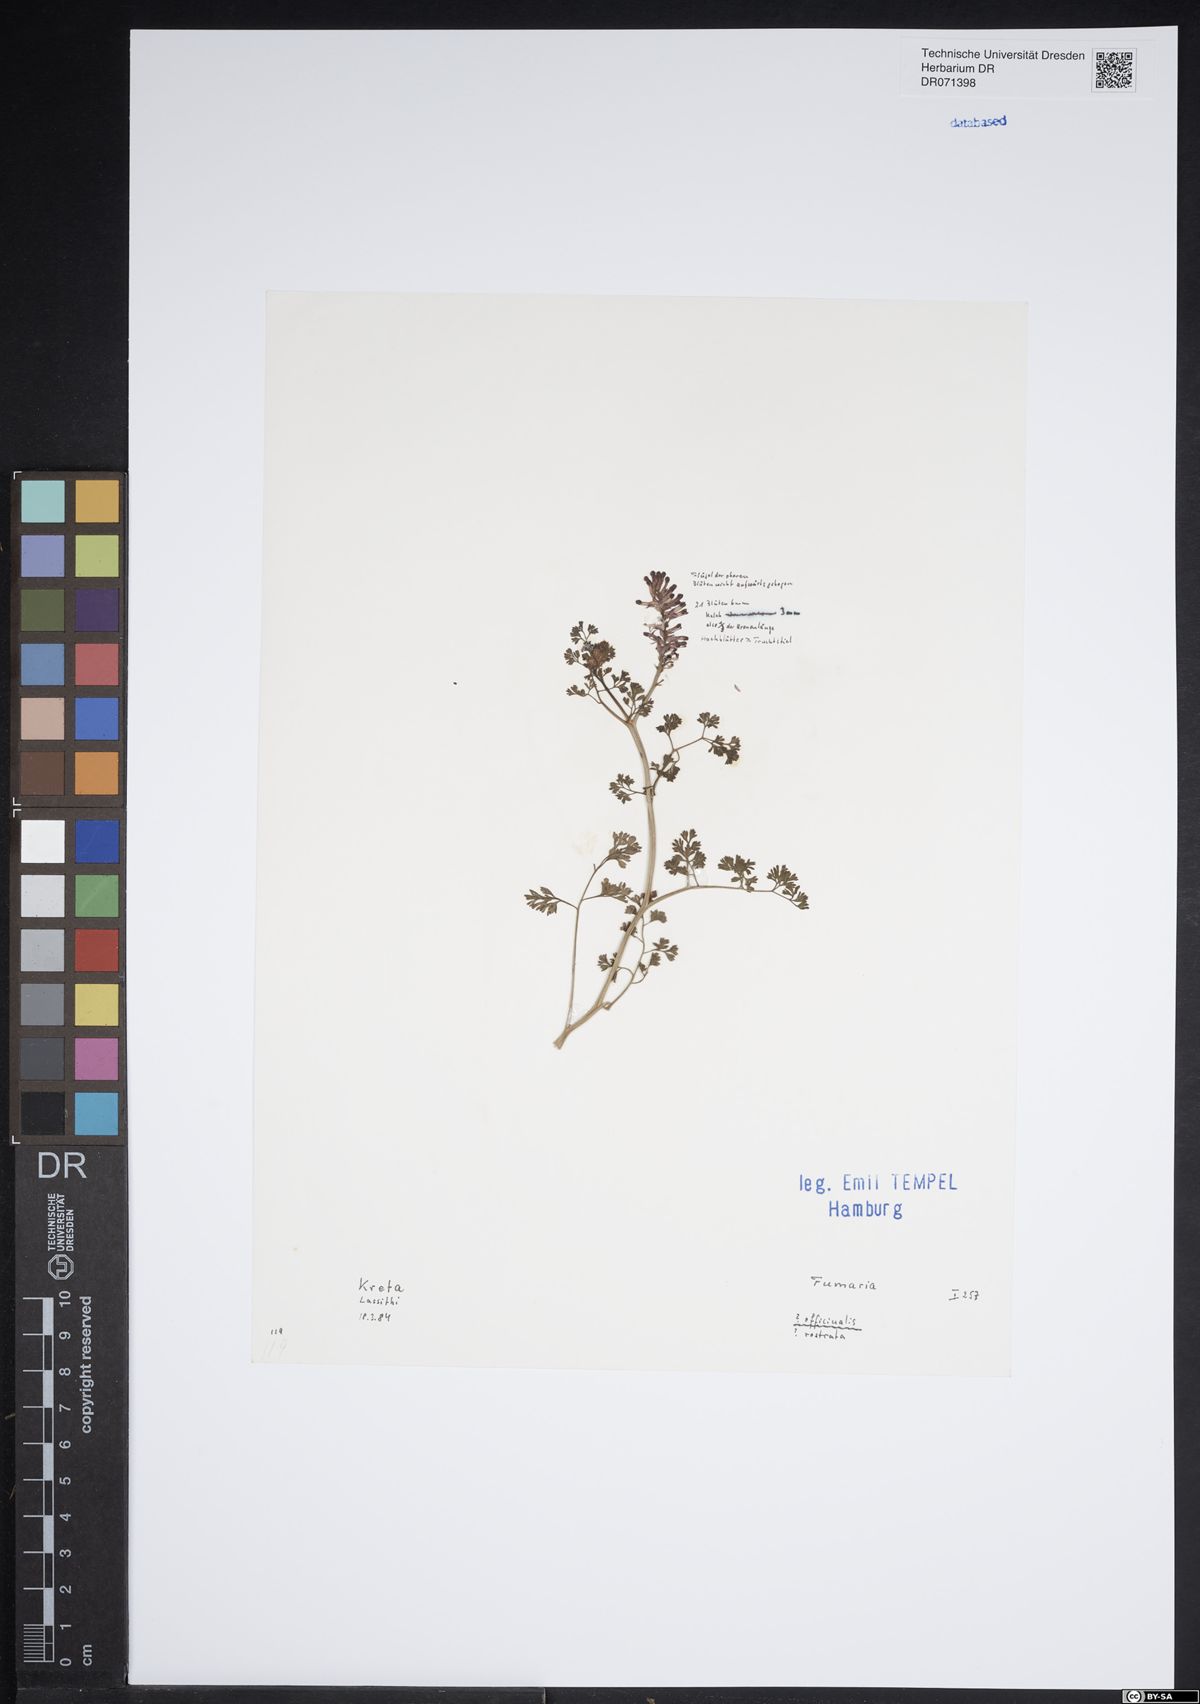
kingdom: Plantae
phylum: Tracheophyta
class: Magnoliopsida
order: Ranunculales
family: Papaveraceae
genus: Fumaria
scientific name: Fumaria officinalis
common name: Common fumitory
